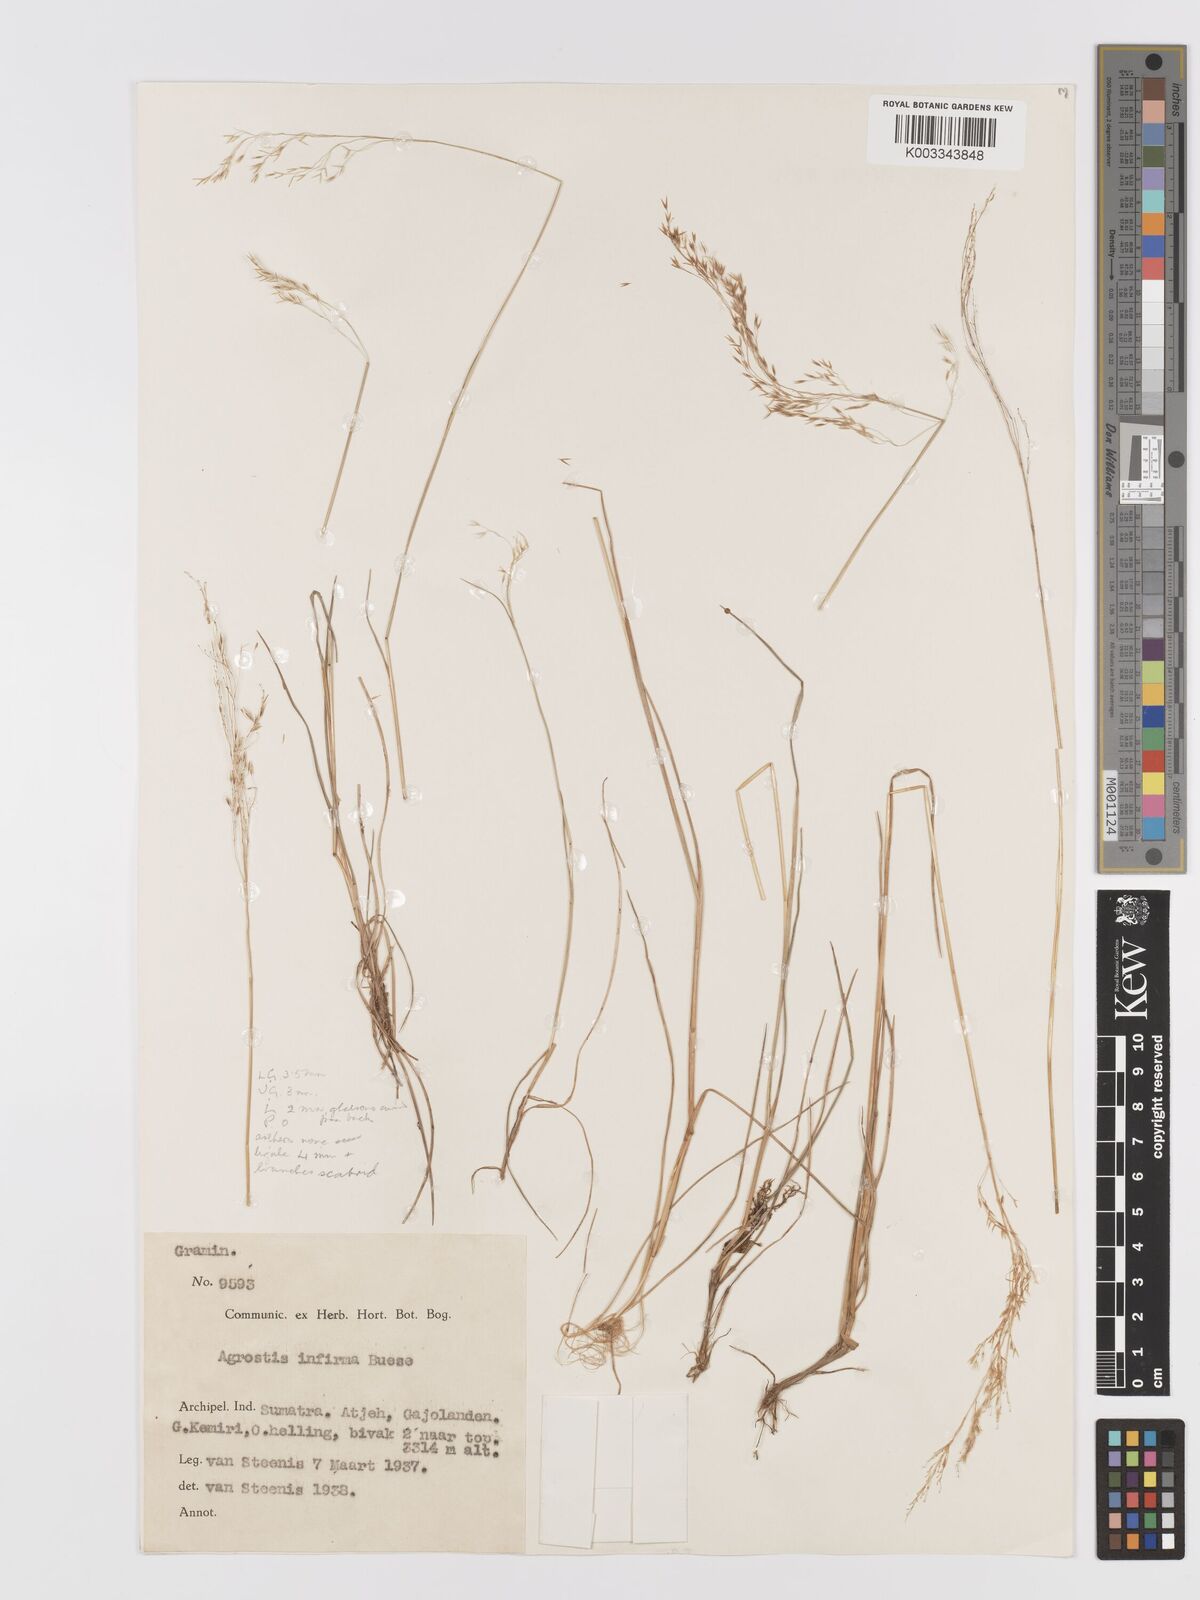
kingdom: Plantae
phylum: Tracheophyta
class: Liliopsida
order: Poales
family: Poaceae
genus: Agrostis
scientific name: Agrostis infirma
